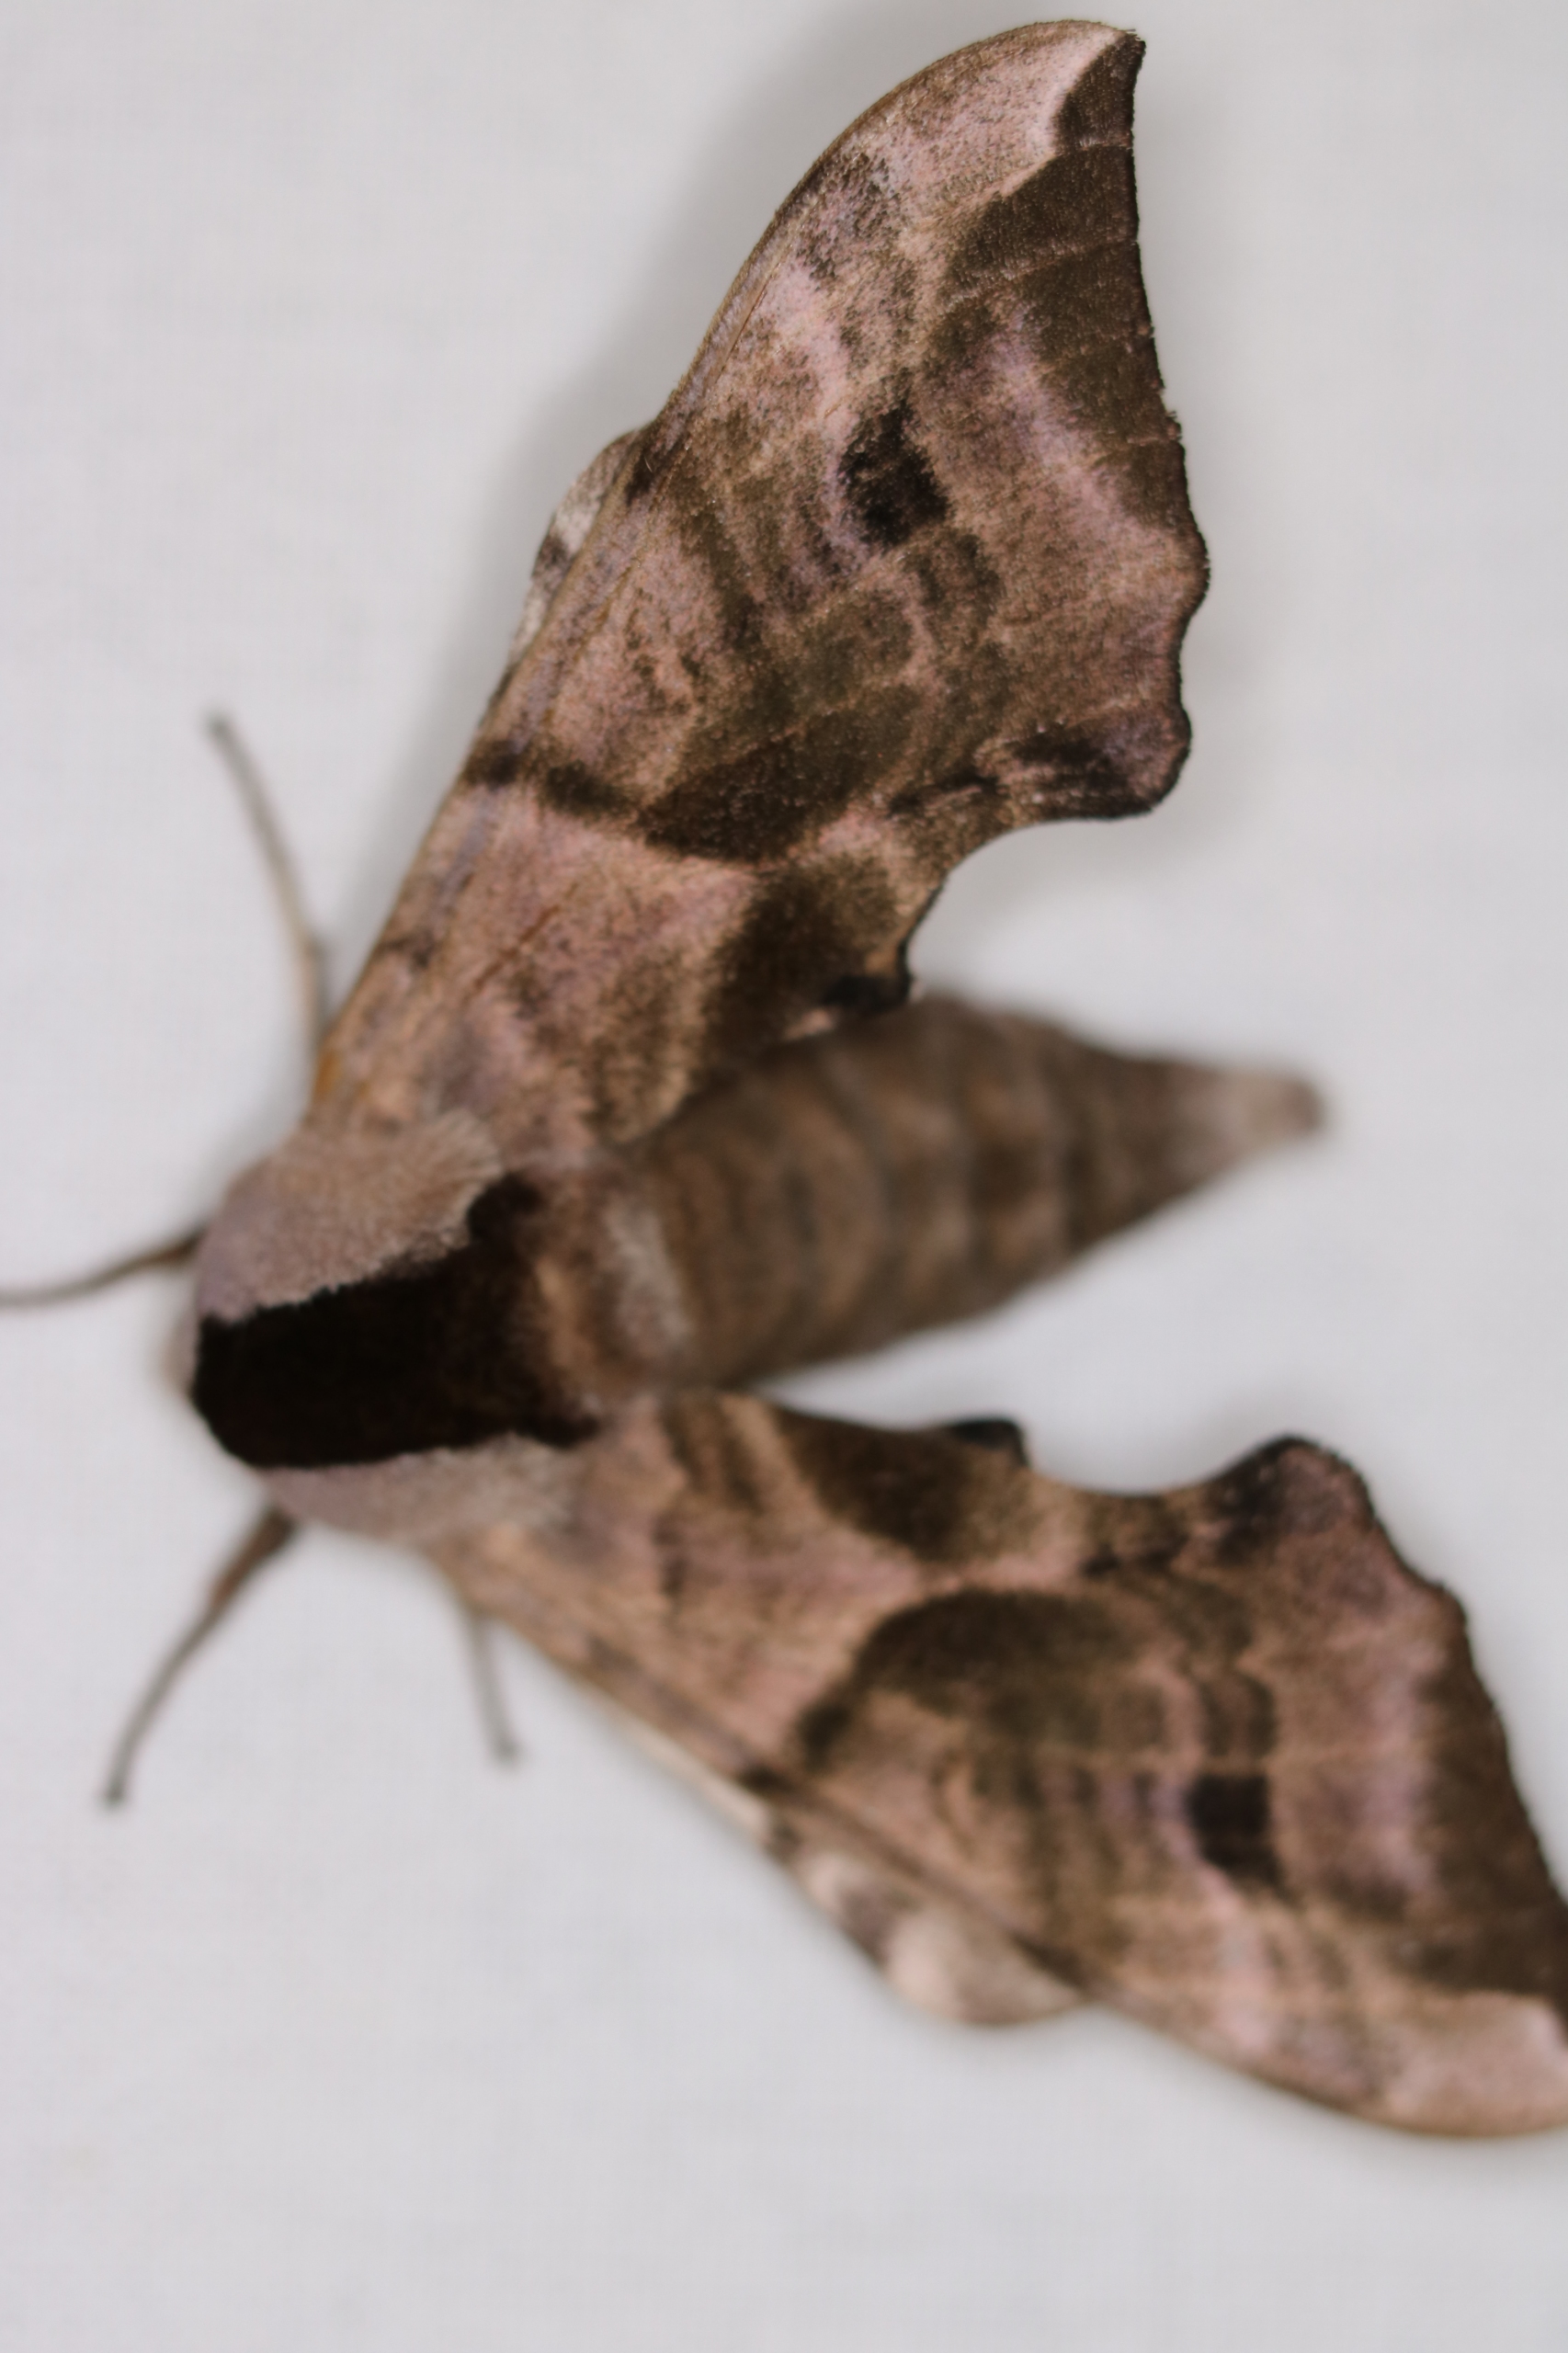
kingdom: Animalia
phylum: Arthropoda
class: Insecta
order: Lepidoptera
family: Sphingidae
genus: Smerinthus
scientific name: Smerinthus ocellata
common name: Aftenpåfugleøje
